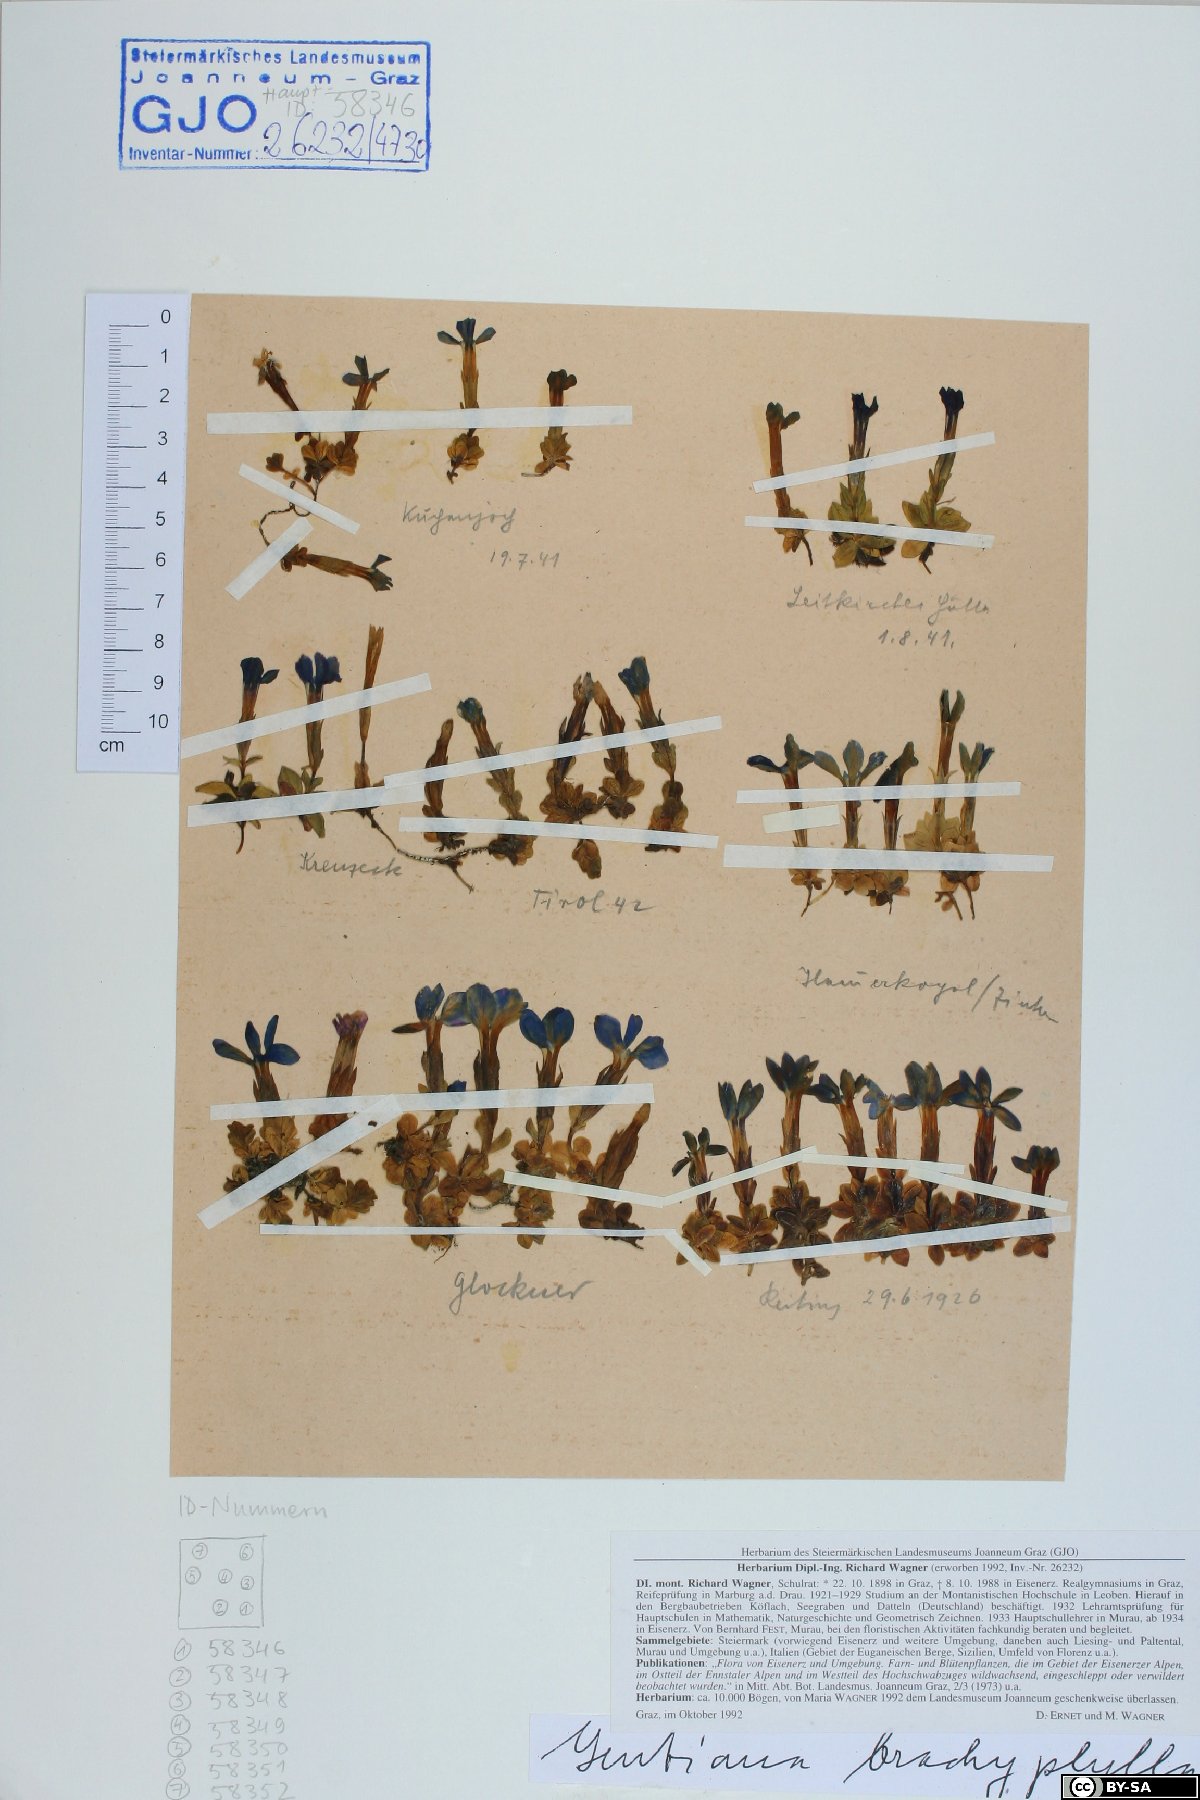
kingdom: Plantae
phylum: Tracheophyta
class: Magnoliopsida
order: Gentianales
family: Gentianaceae
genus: Gentiana
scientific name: Gentiana brachyphylla
